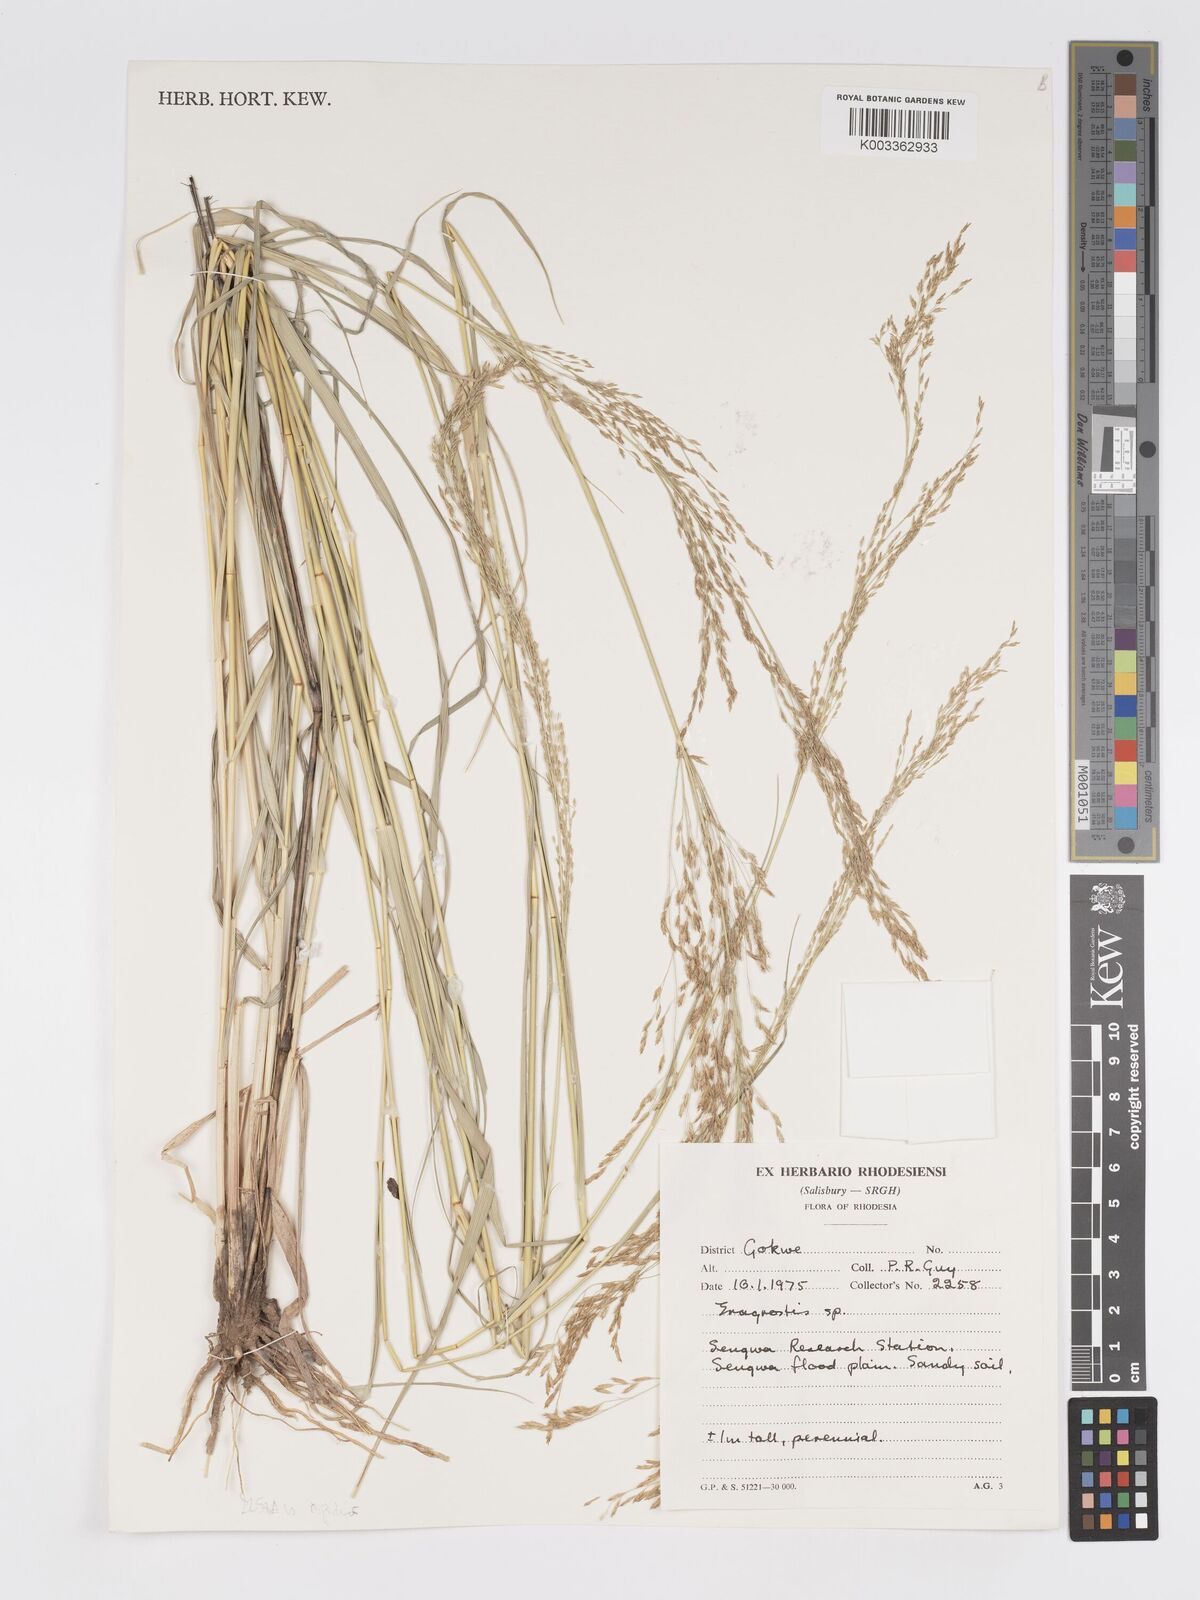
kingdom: Plantae
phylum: Tracheophyta
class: Liliopsida
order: Poales
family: Poaceae
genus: Eragrostis
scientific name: Eragrostis cylindriflora
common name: Cylinderflower lovegrass
